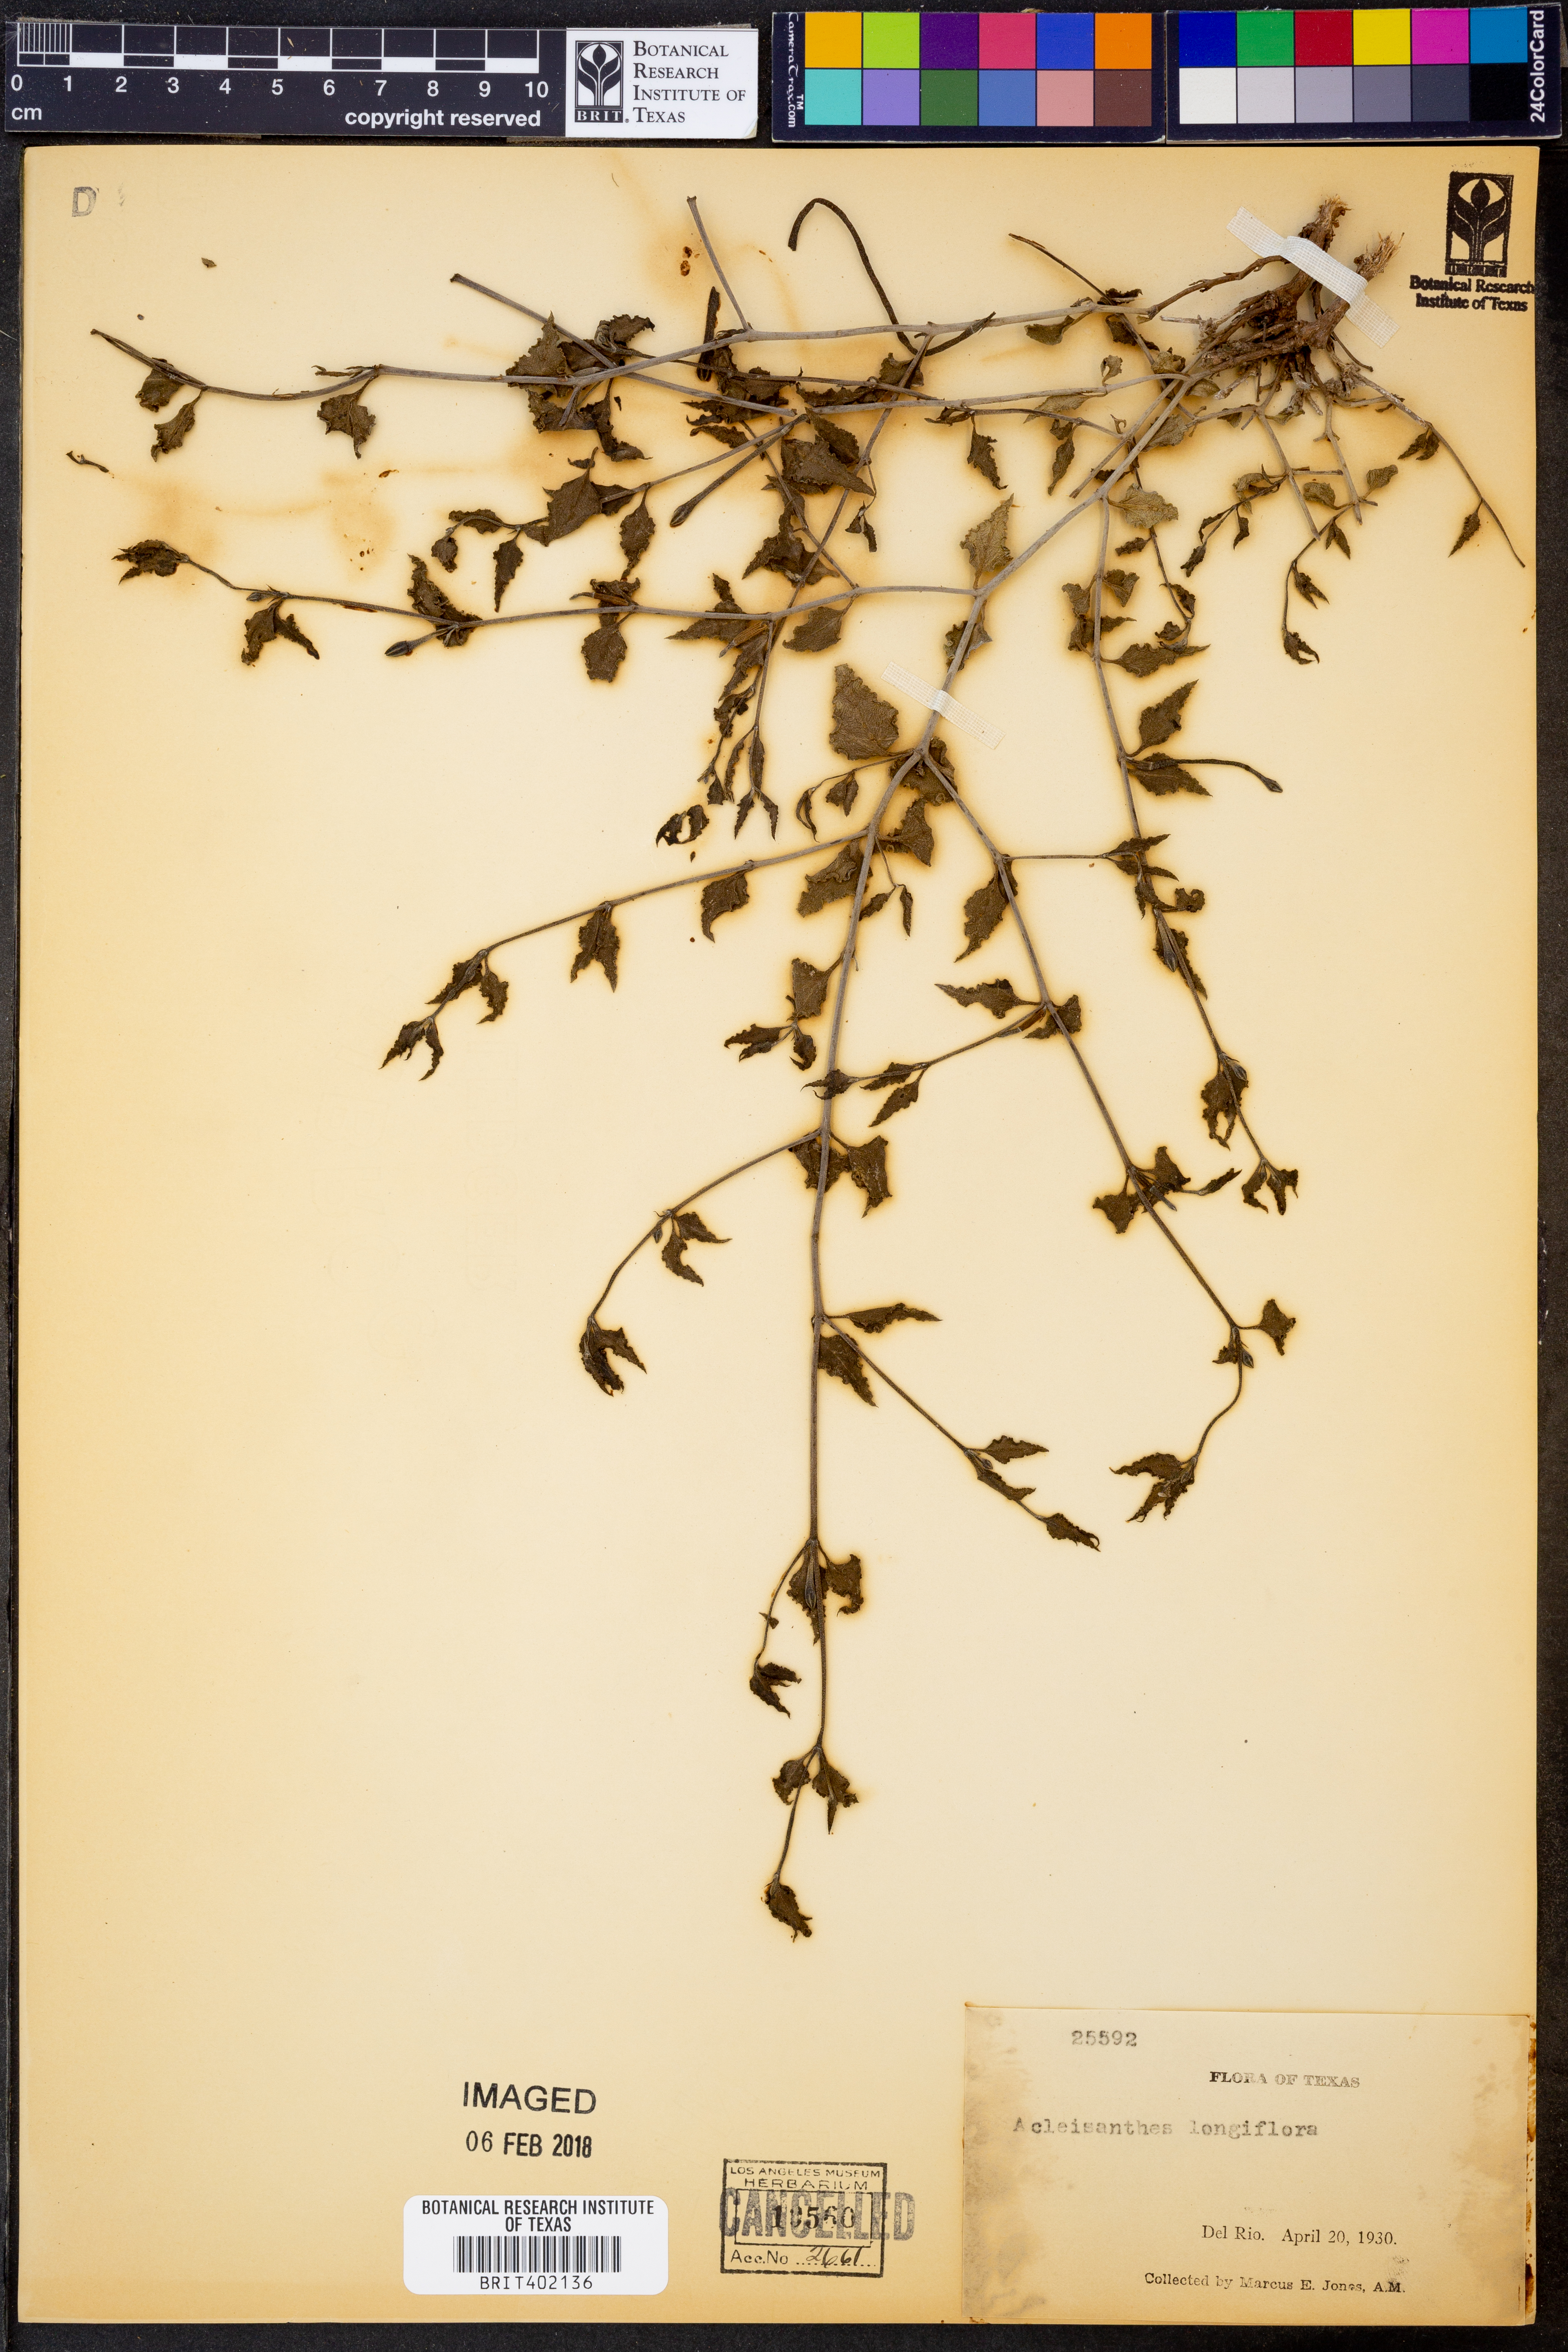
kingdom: Plantae
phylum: Tracheophyta
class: Magnoliopsida
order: Caryophyllales
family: Nyctaginaceae
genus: Acleisanthes
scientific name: Acleisanthes longiflora
